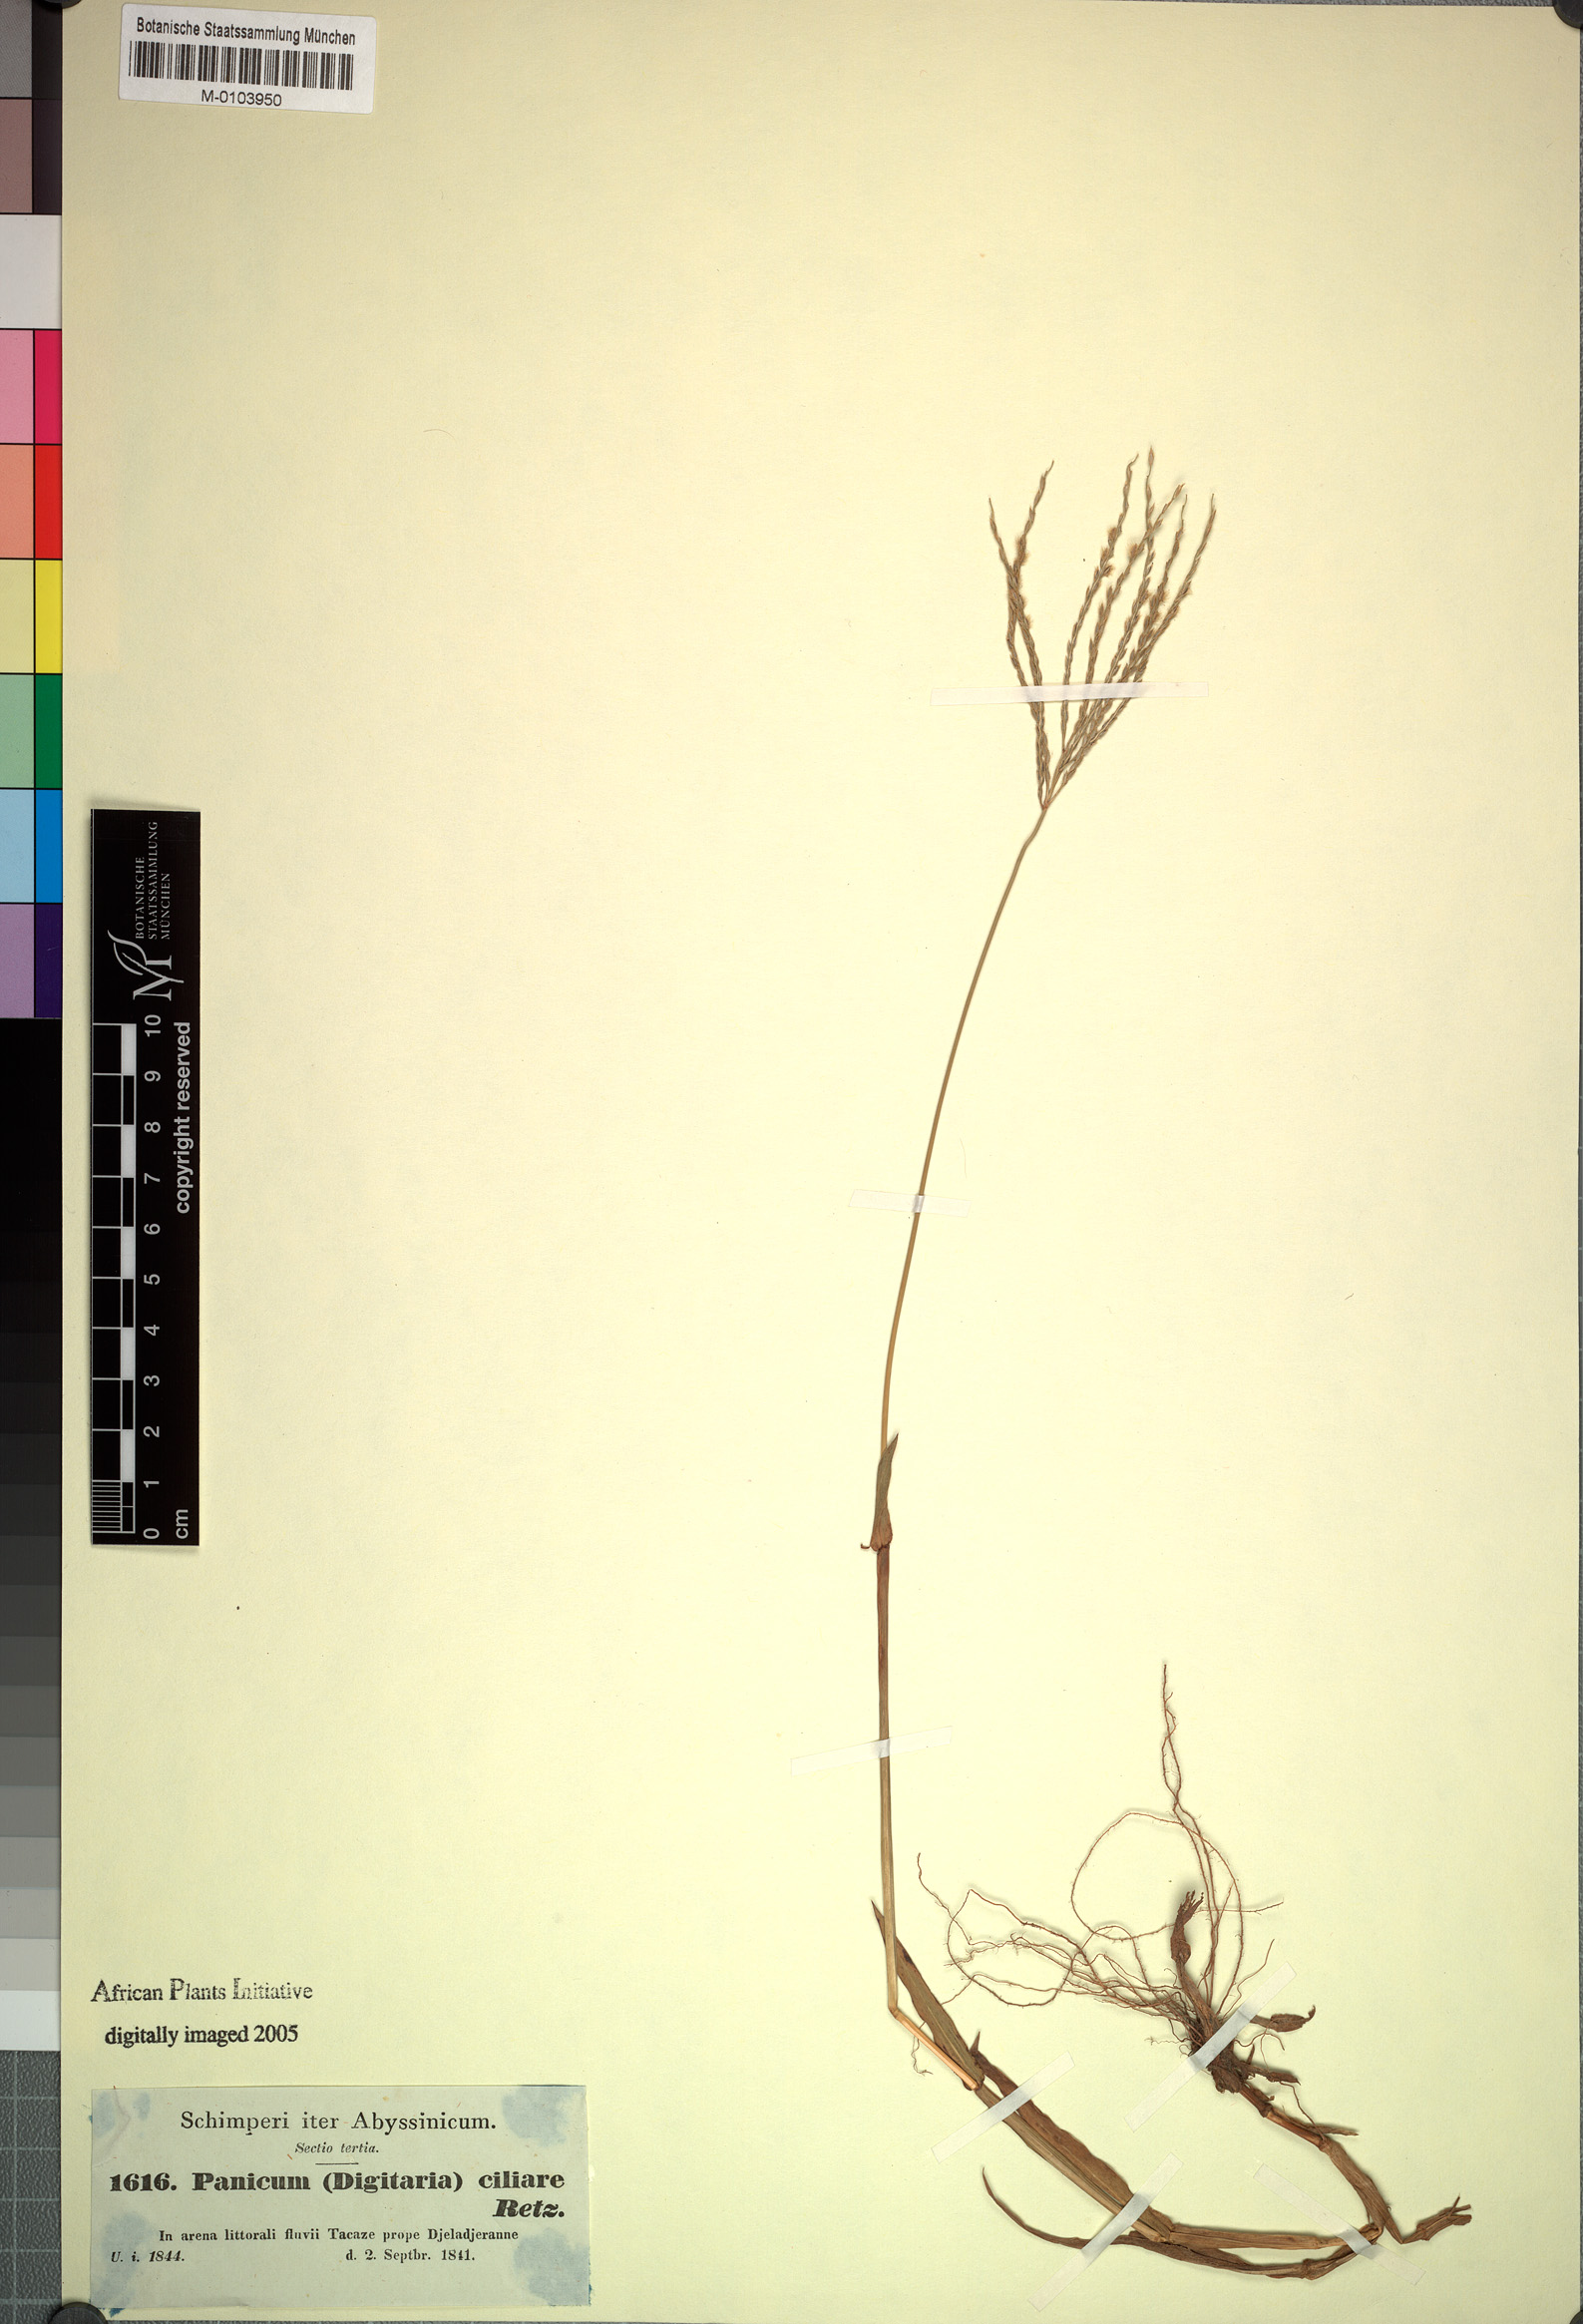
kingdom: Plantae
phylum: Tracheophyta
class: Liliopsida
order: Poales
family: Poaceae
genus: Digitaria
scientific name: Digitaria ciliaris
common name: Tropical finger-grass
